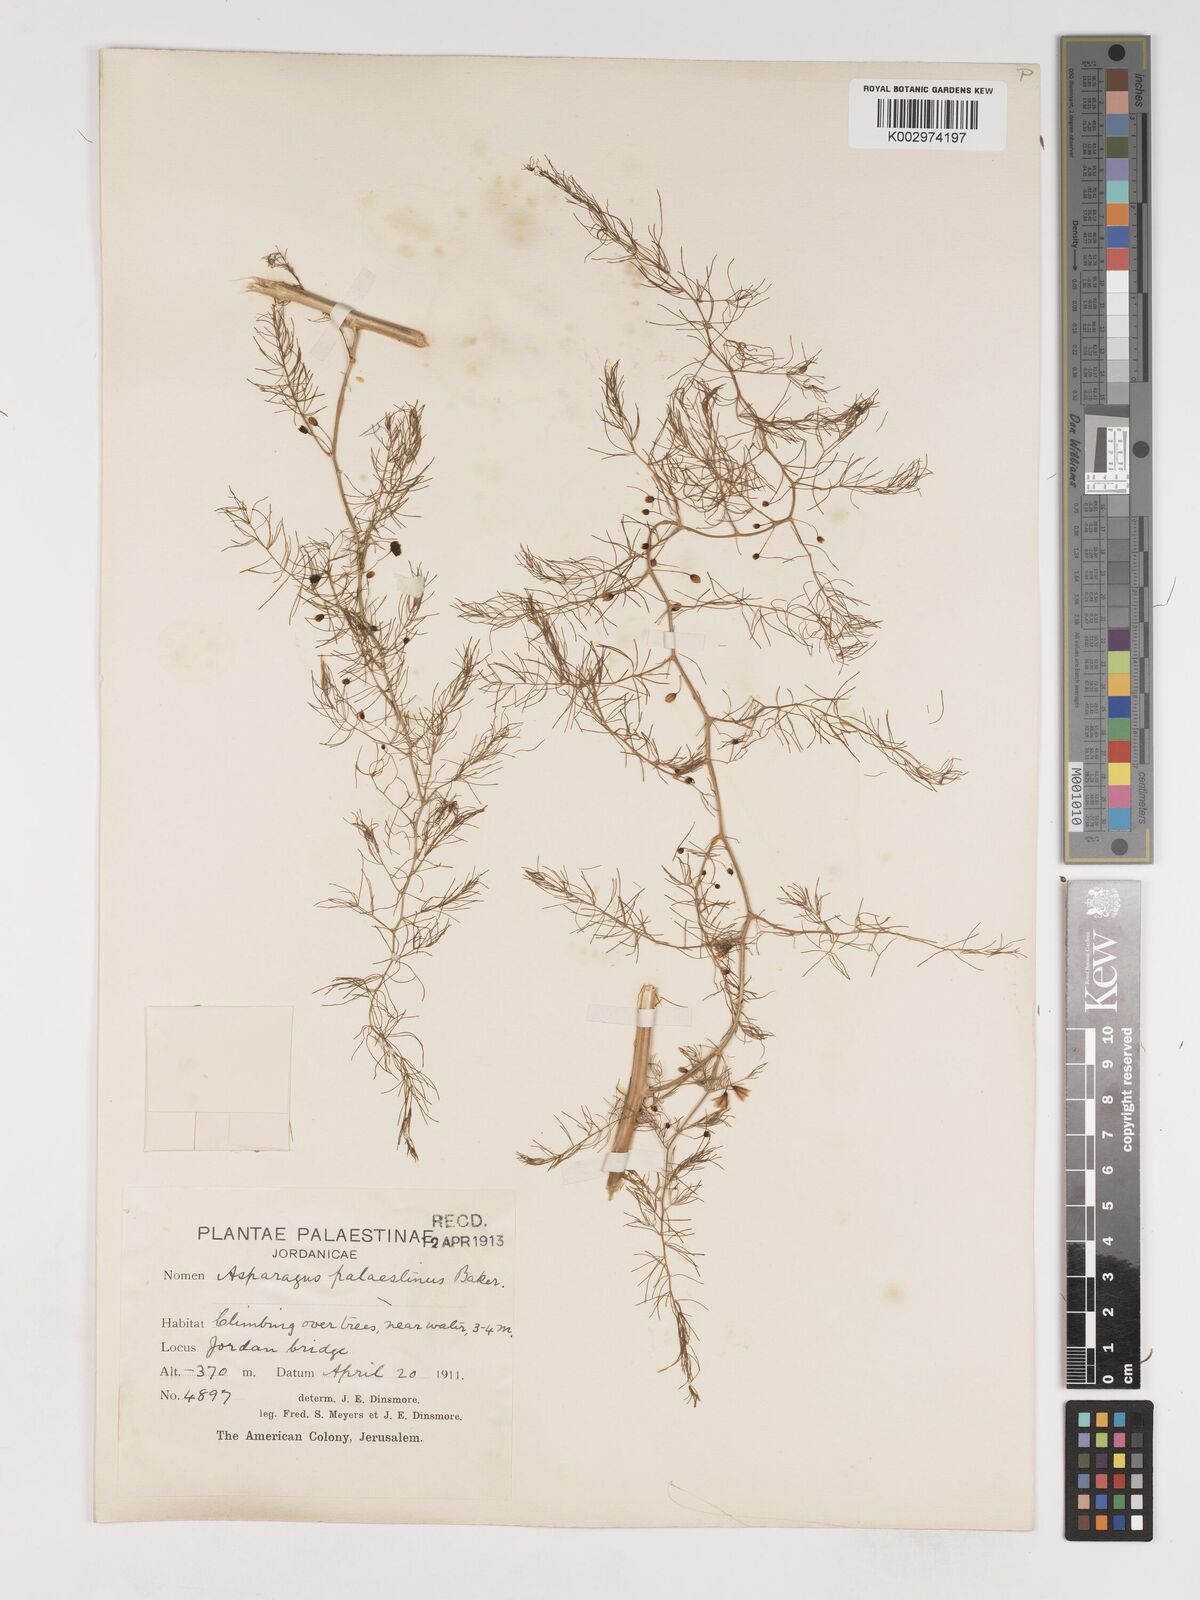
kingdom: Plantae
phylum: Tracheophyta
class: Liliopsida
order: Asparagales
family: Asparagaceae
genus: Asparagus
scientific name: Asparagus palaestinus
